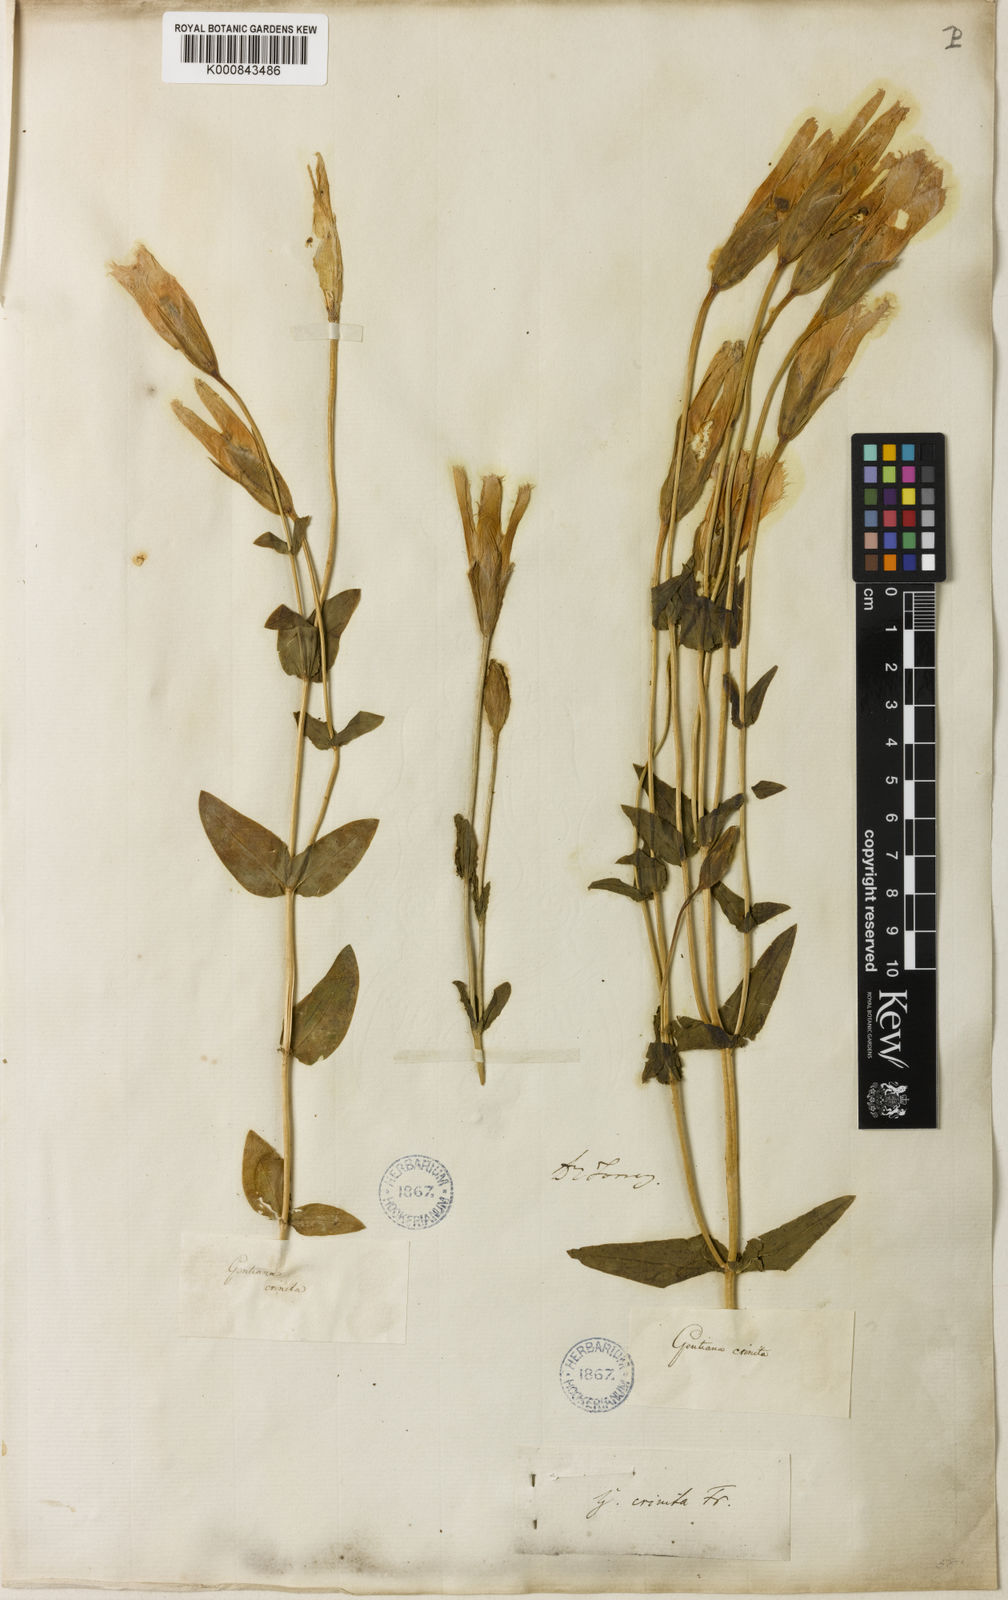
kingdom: Plantae
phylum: Tracheophyta
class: Magnoliopsida
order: Gentianales
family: Gentianaceae
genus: Gentianopsis
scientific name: Gentianopsis crinita
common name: Fringed-gentian
